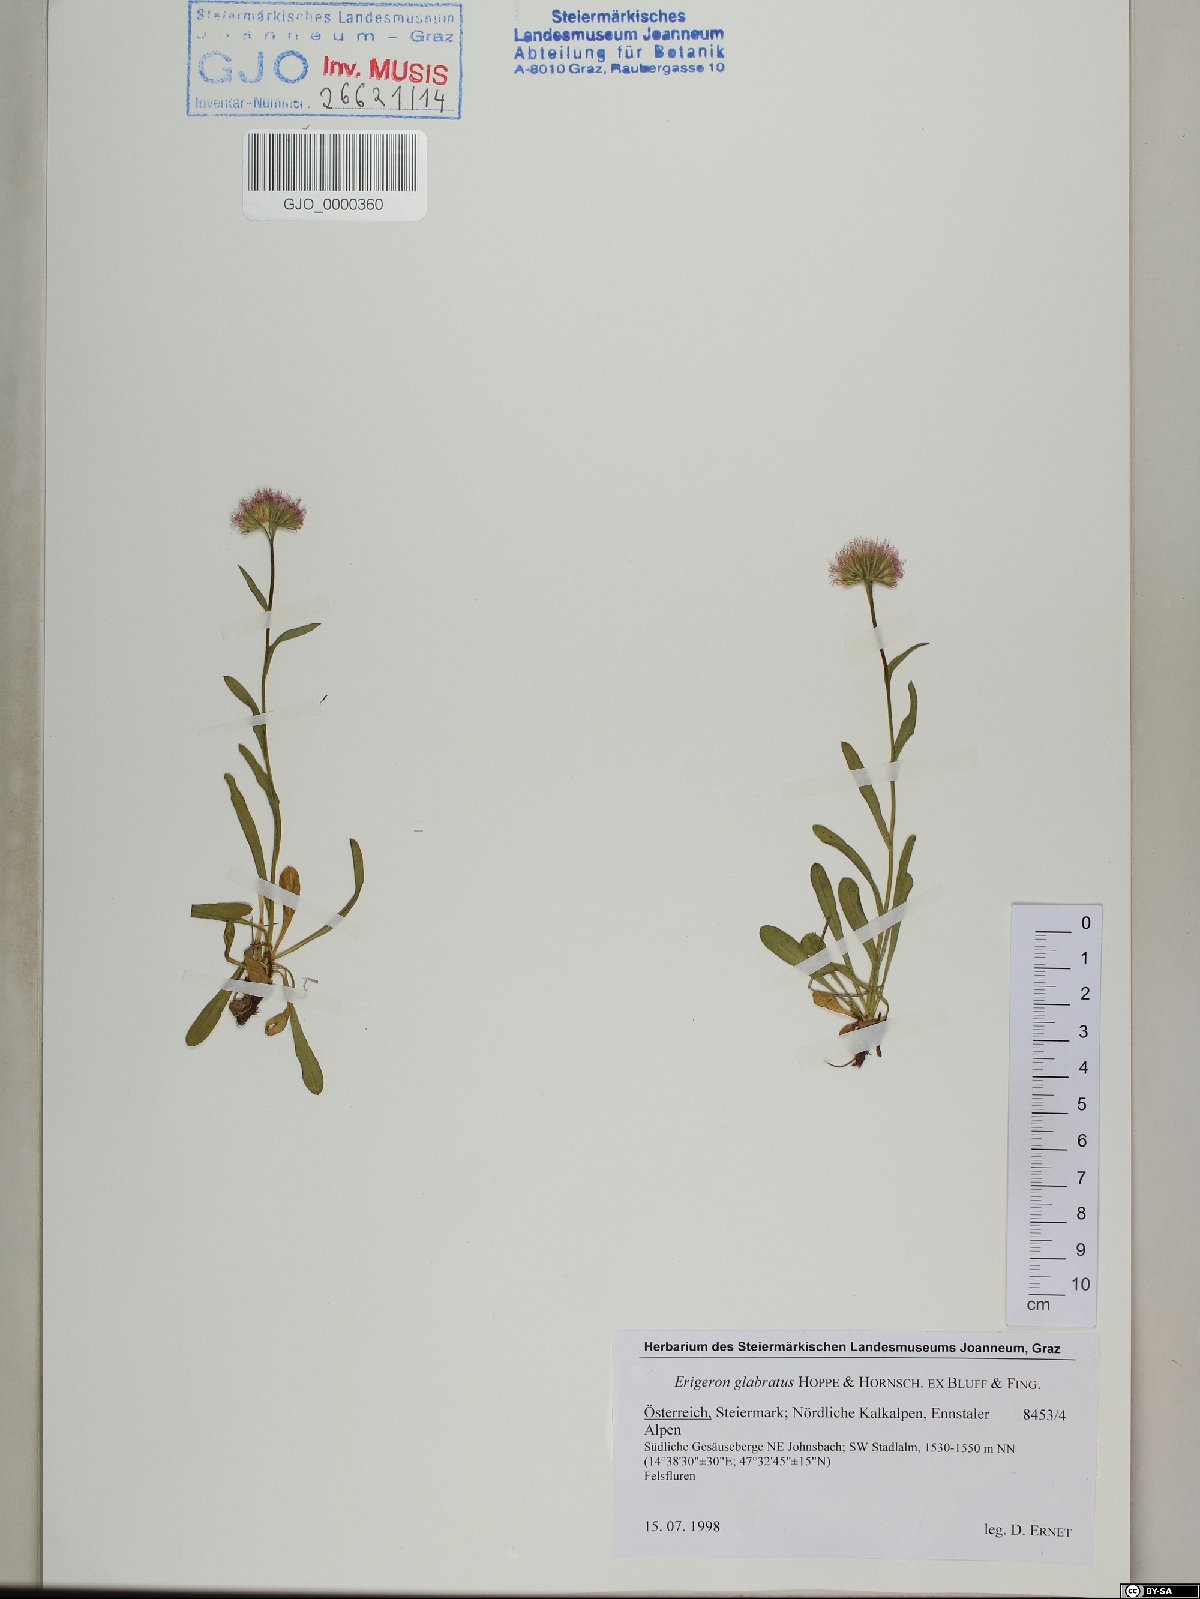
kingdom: Plantae
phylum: Tracheophyta
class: Magnoliopsida
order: Asterales
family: Asteraceae
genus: Erigeron
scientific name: Erigeron glabratus
